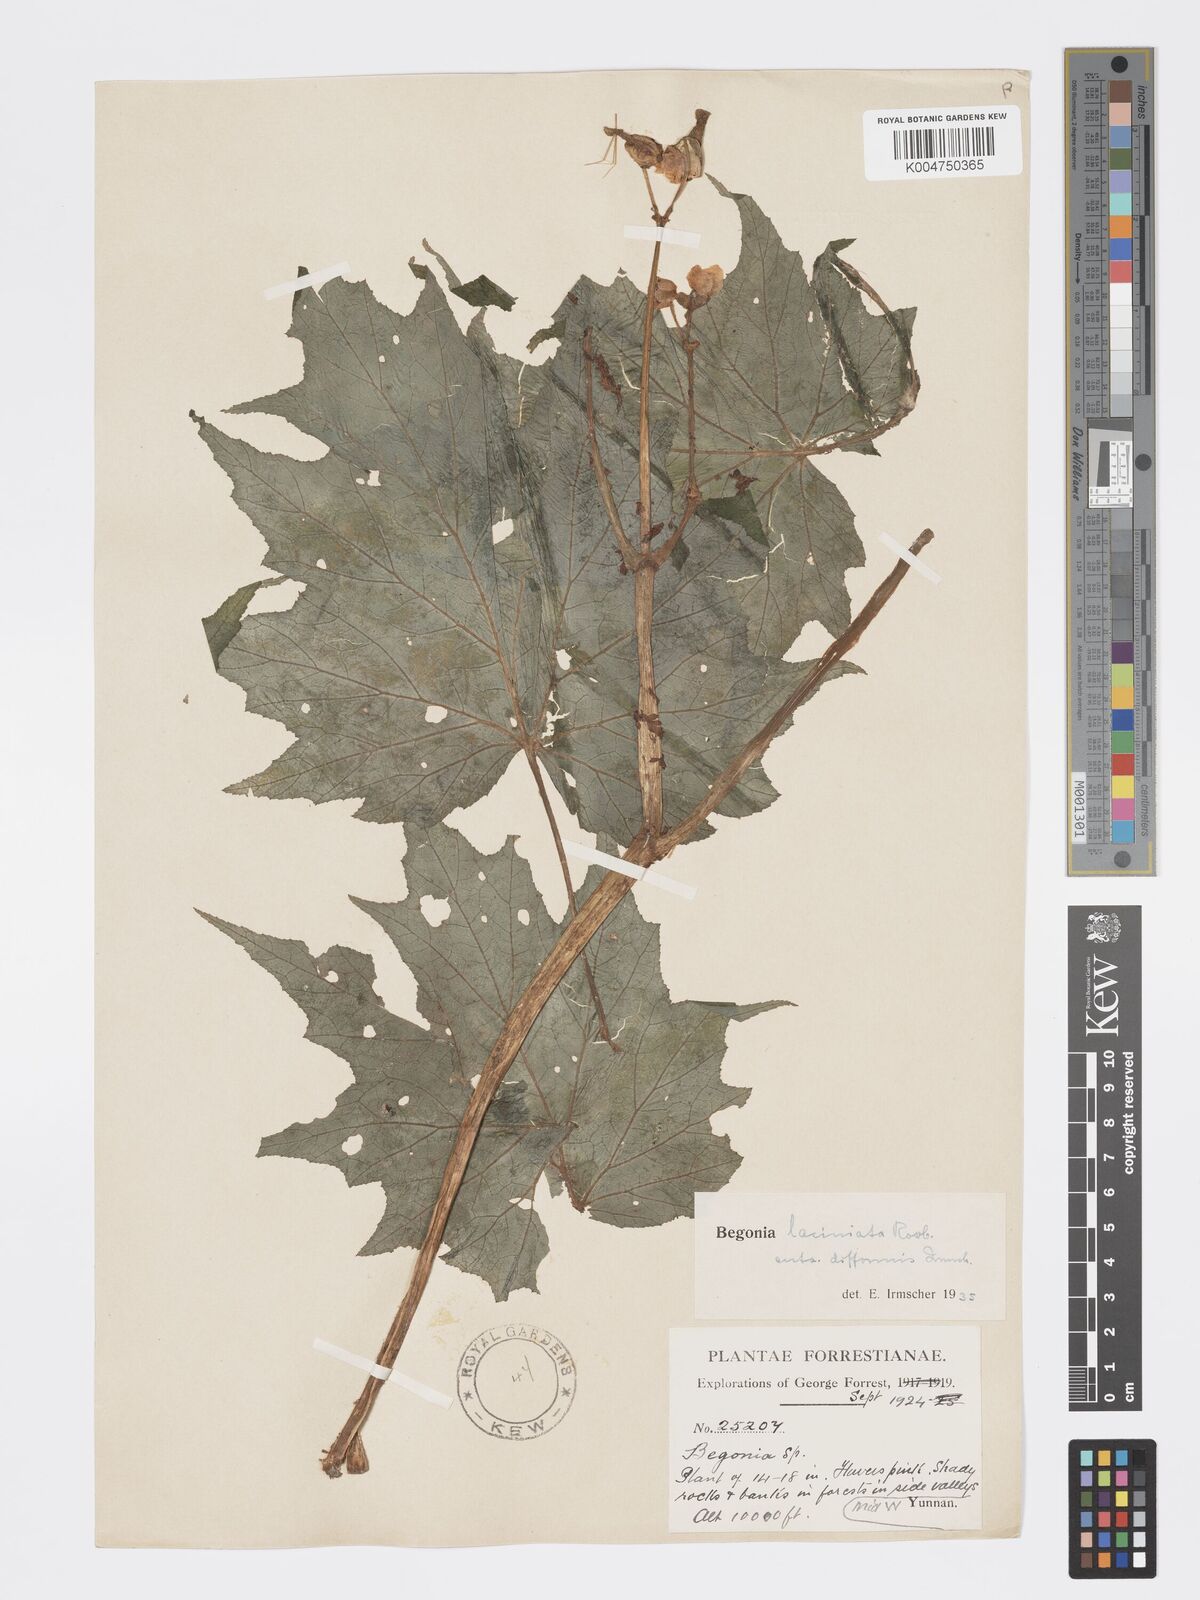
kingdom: Plantae
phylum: Tracheophyta
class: Magnoliopsida
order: Cucurbitales
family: Begoniaceae
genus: Begonia
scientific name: Begonia palmata
